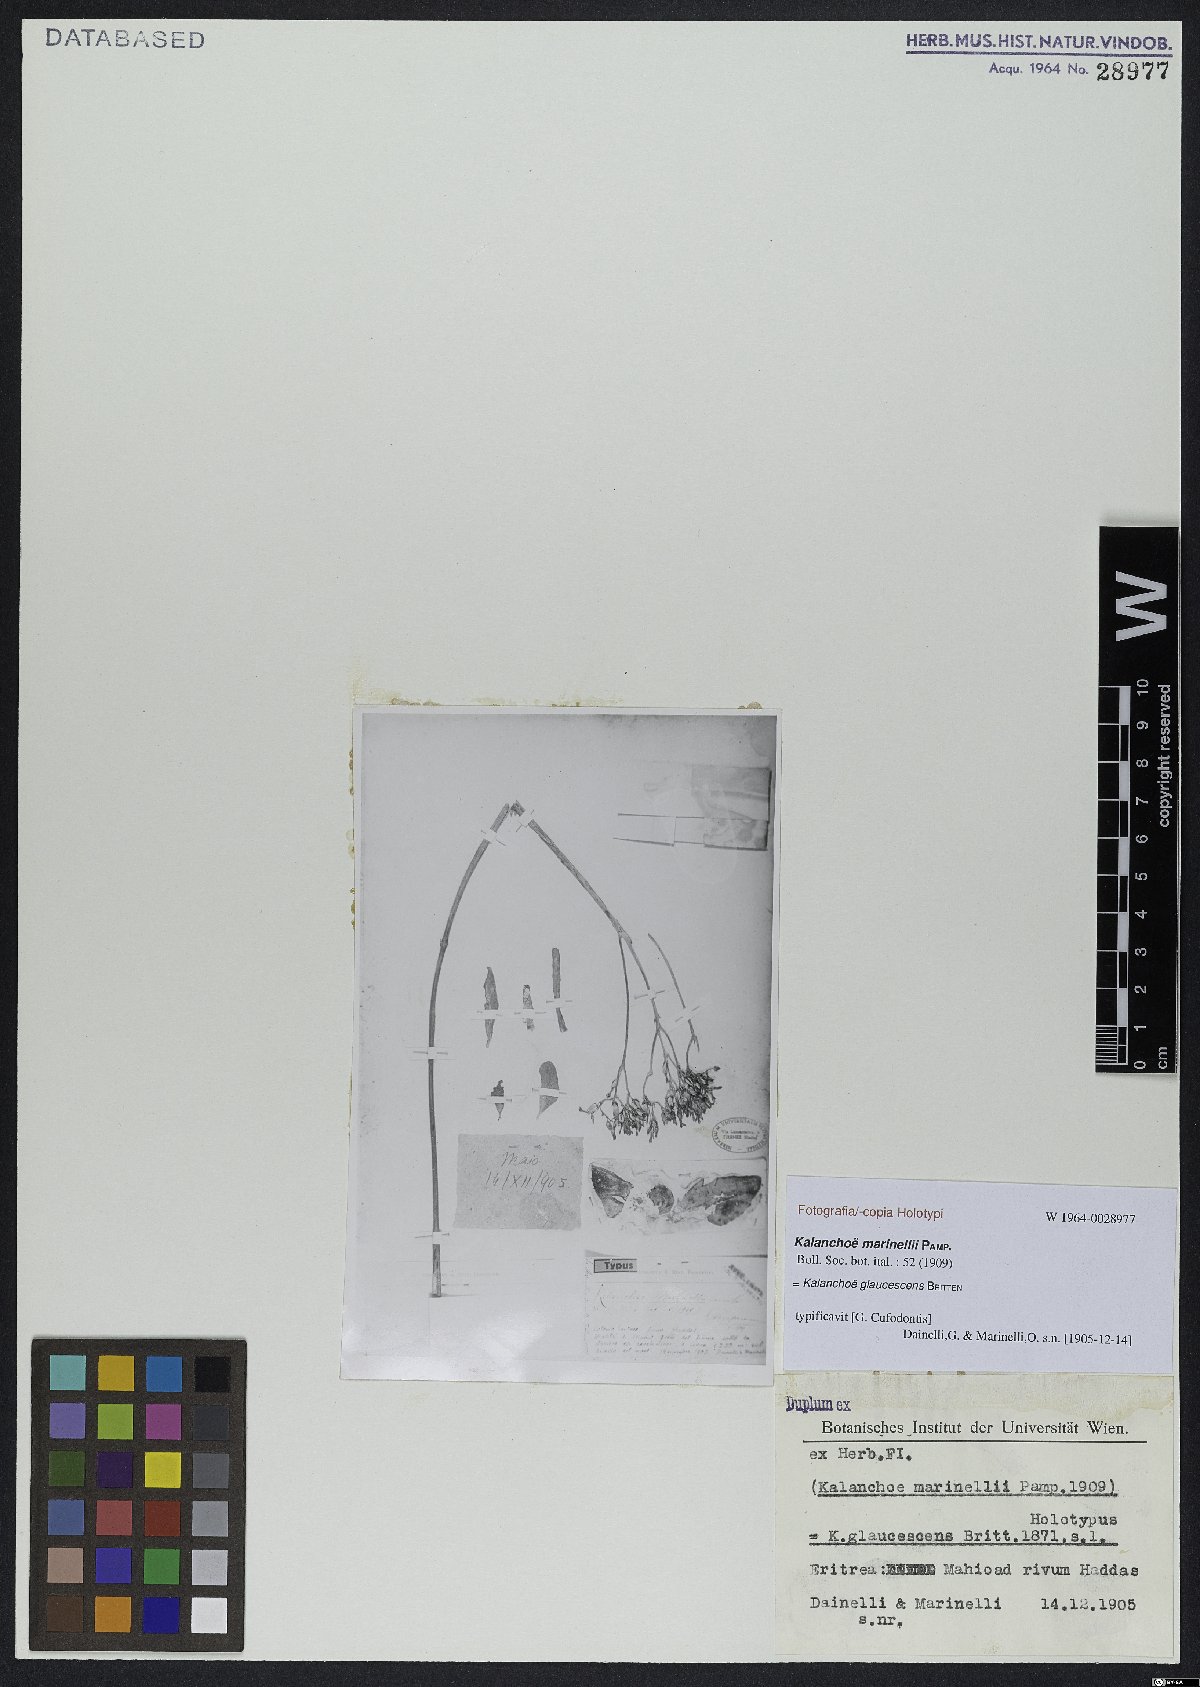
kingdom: Plantae
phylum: Tracheophyta
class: Magnoliopsida
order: Saxifragales
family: Crassulaceae
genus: Kalanchoe
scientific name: Kalanchoe glaucescens
